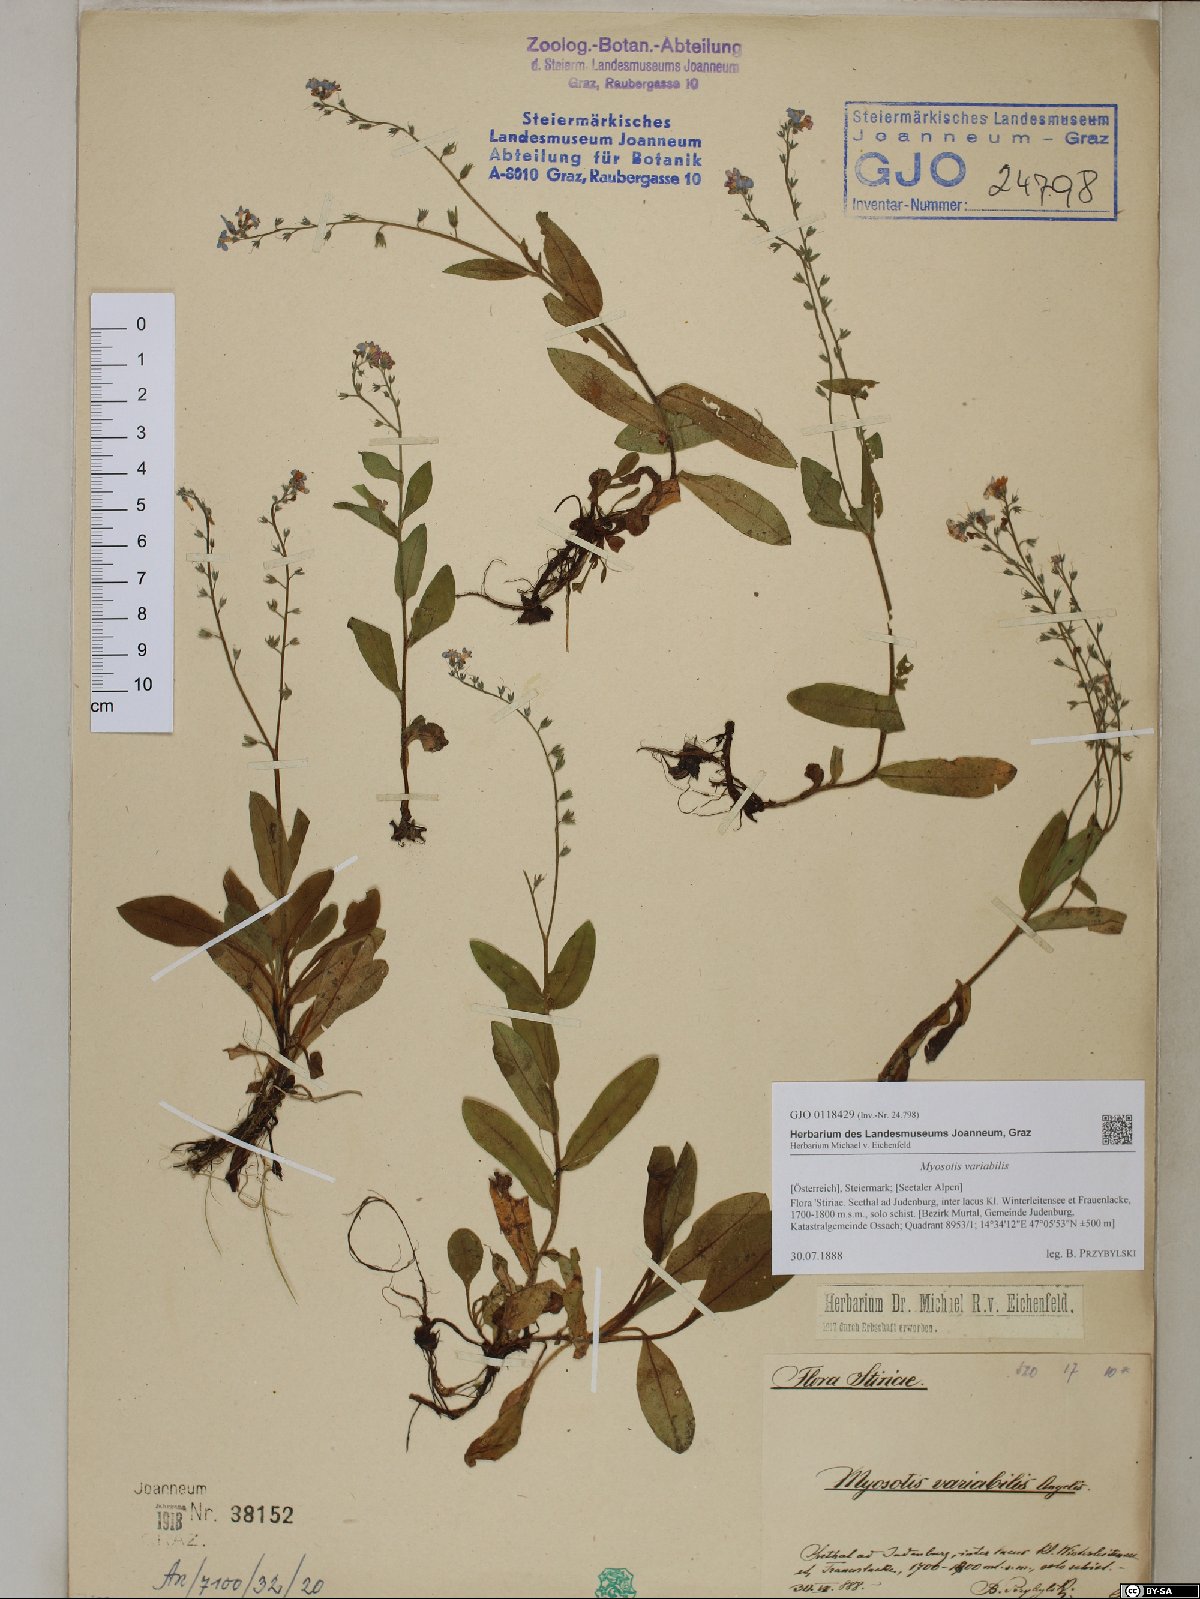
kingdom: Plantae
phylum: Tracheophyta
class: Magnoliopsida
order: Boraginales
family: Boraginaceae
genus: Myosotis
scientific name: Myosotis decumbens
